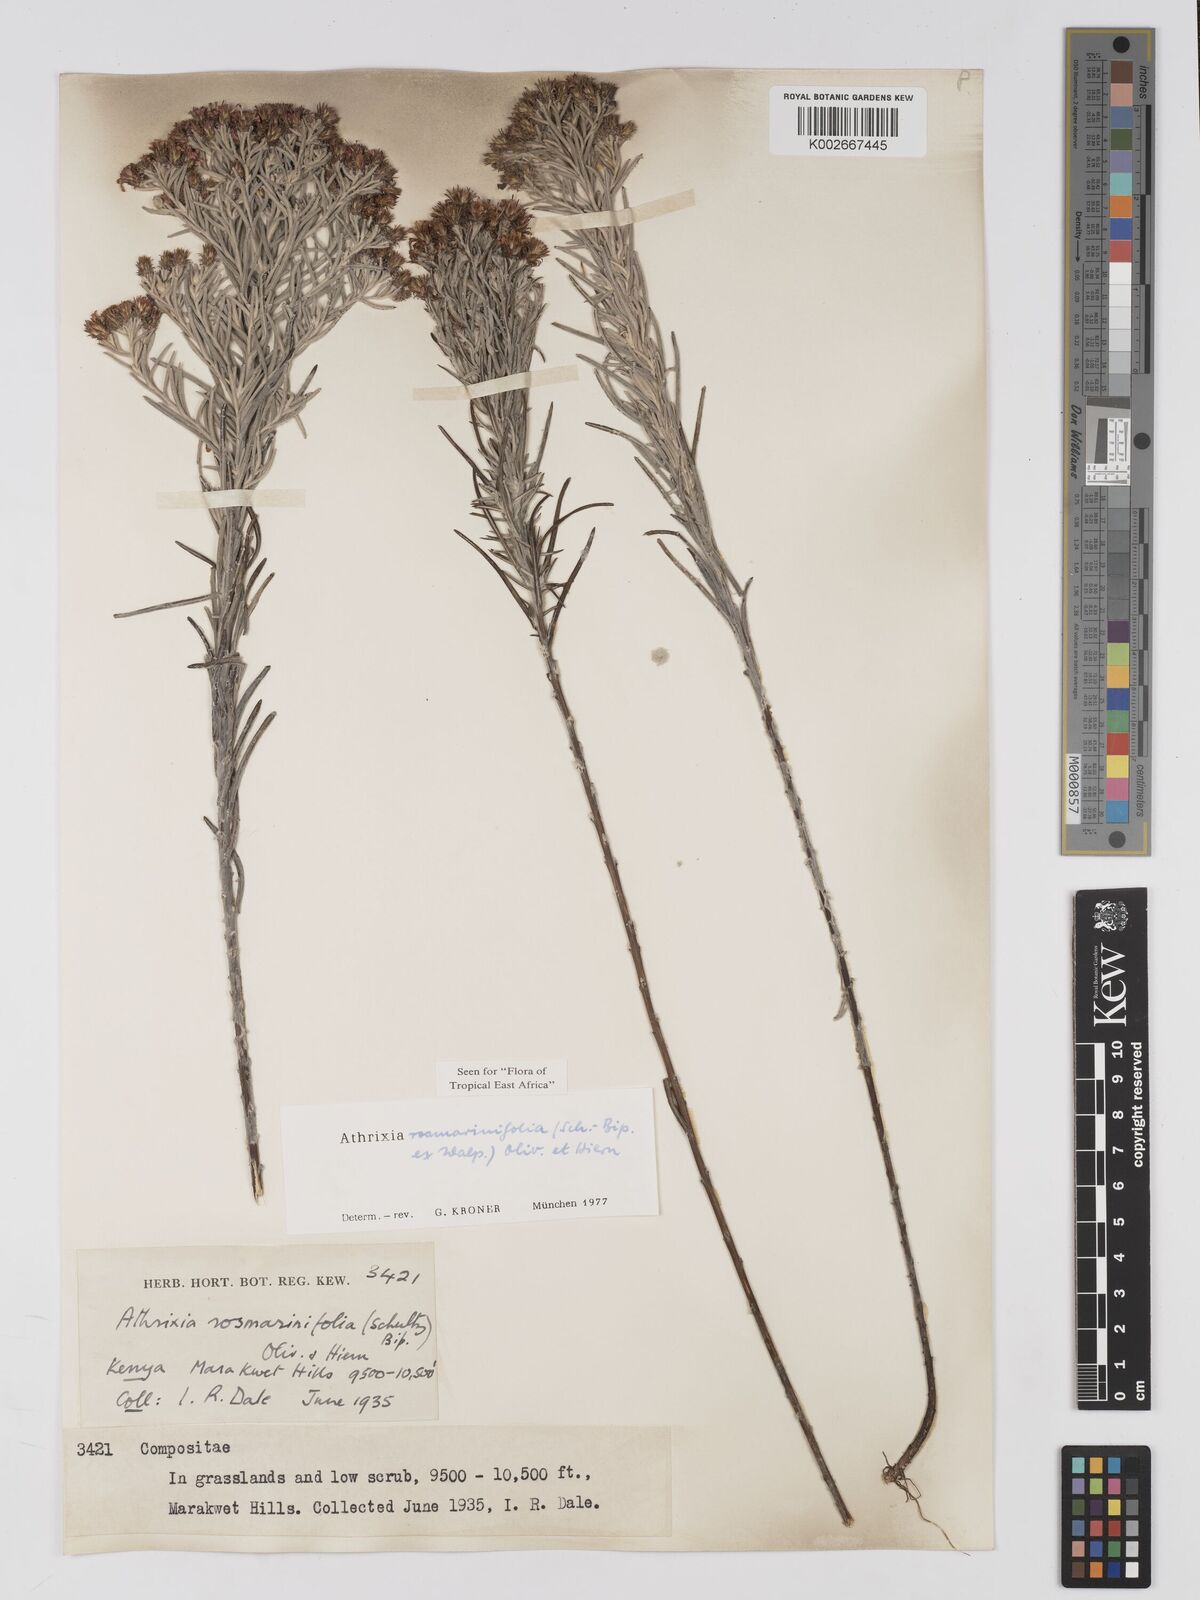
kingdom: Plantae
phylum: Tracheophyta
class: Magnoliopsida
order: Asterales
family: Asteraceae
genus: Athrixia
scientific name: Athrixia rosmarinifolia
